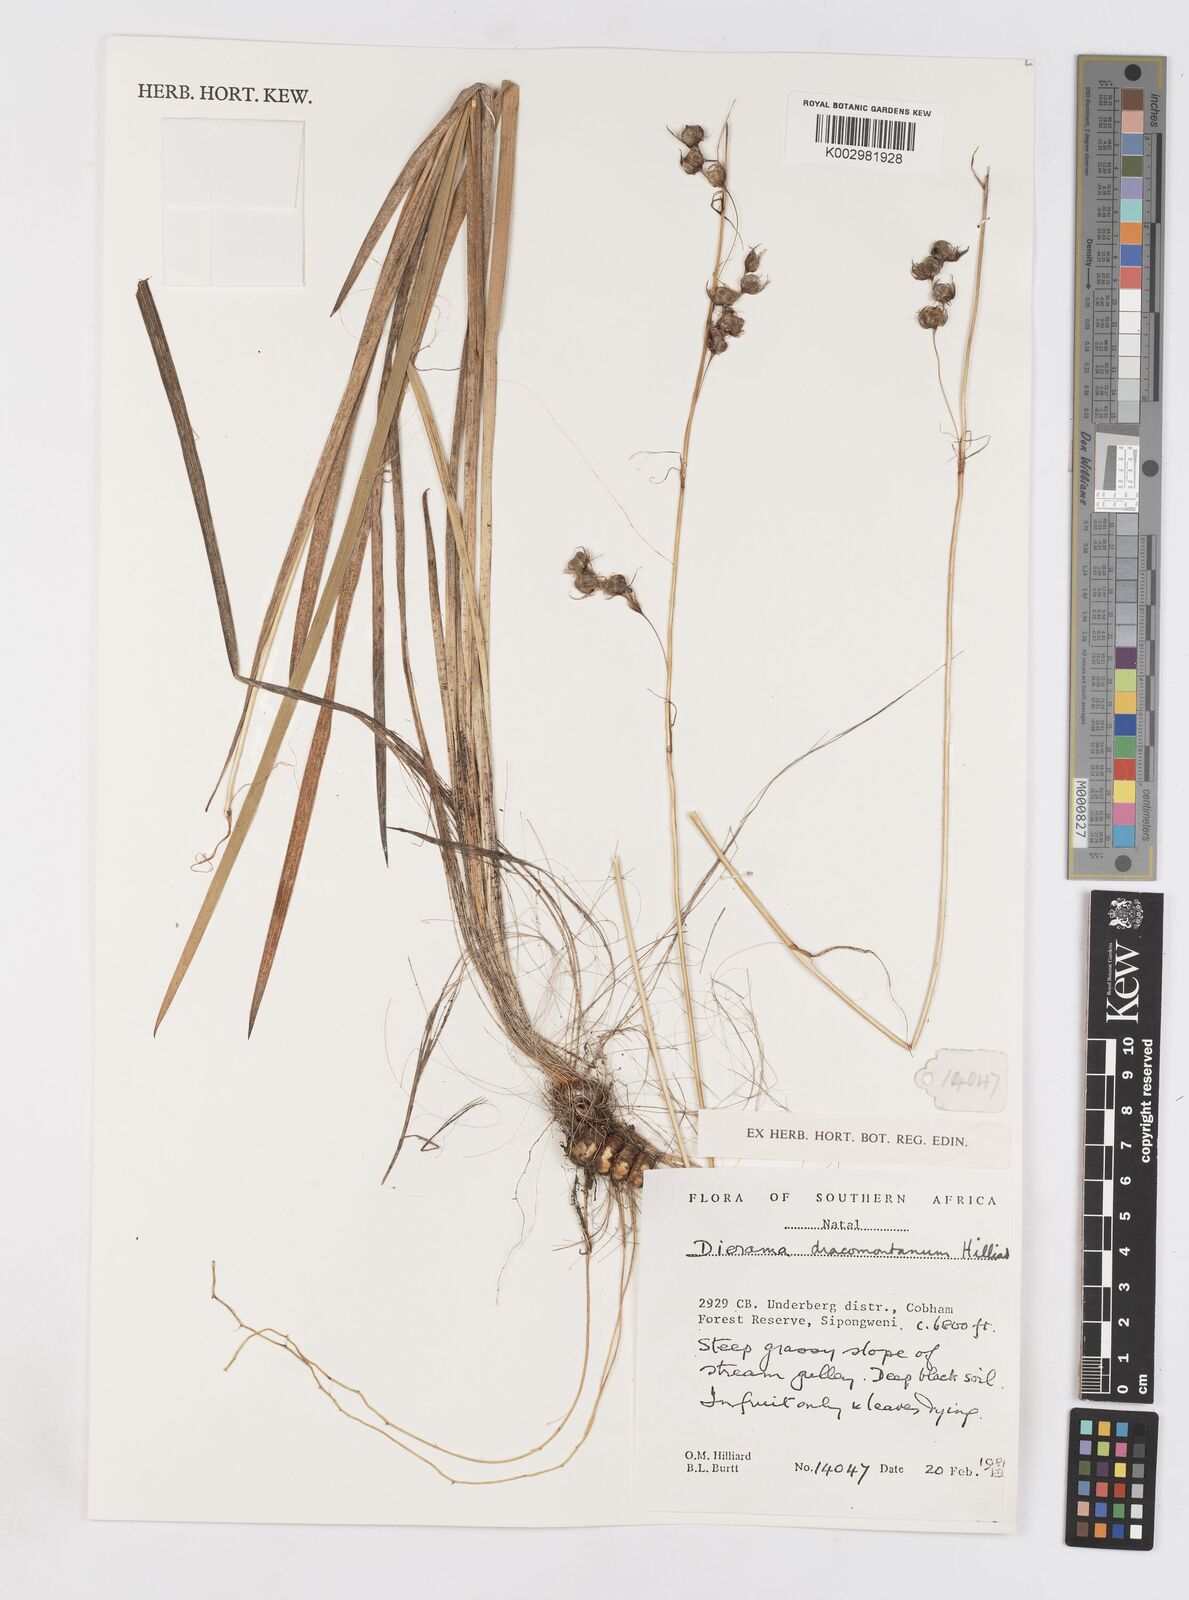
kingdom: Plantae
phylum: Tracheophyta
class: Liliopsida
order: Asparagales
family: Iridaceae
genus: Dierama
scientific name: Dierama dracomontanum
